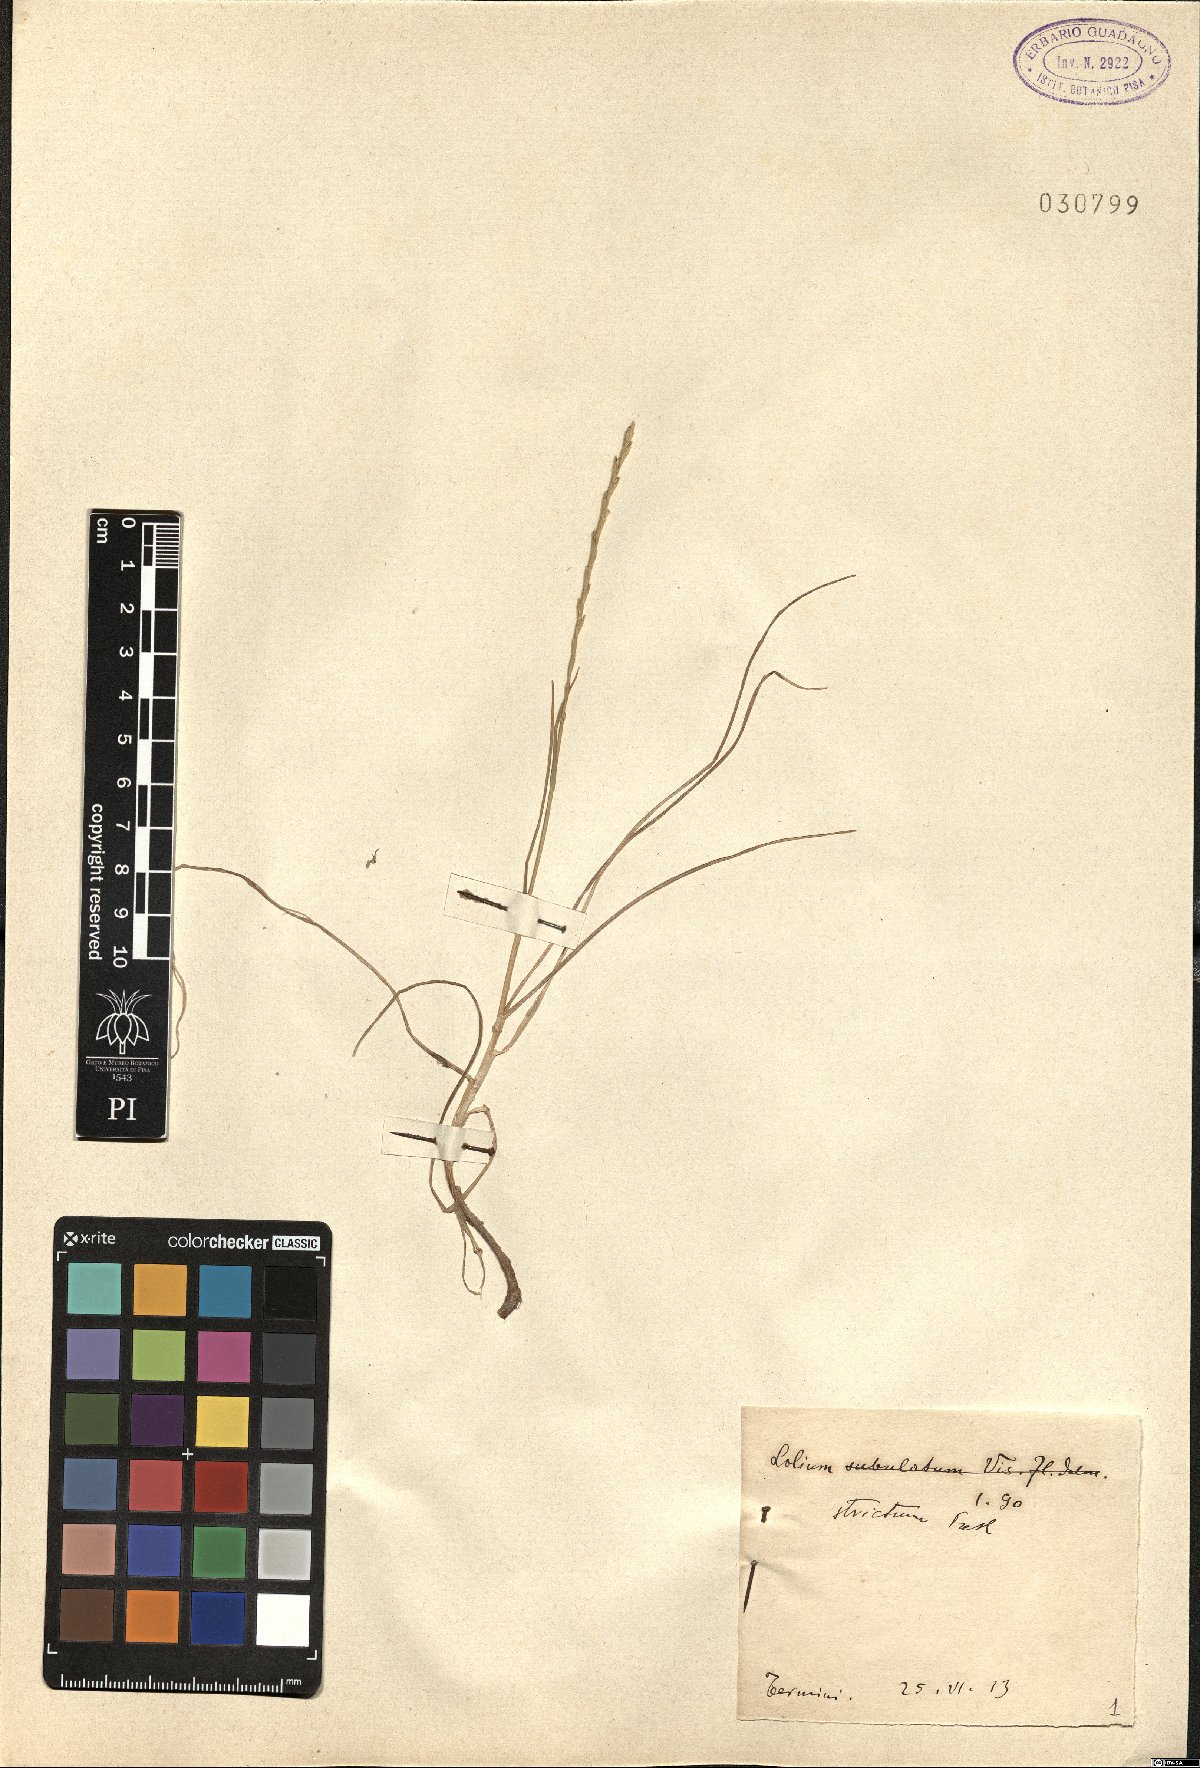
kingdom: Plantae
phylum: Tracheophyta
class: Liliopsida
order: Poales
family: Poaceae
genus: Lolium
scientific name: Lolium rigidum
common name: Wimmera ryegrass
